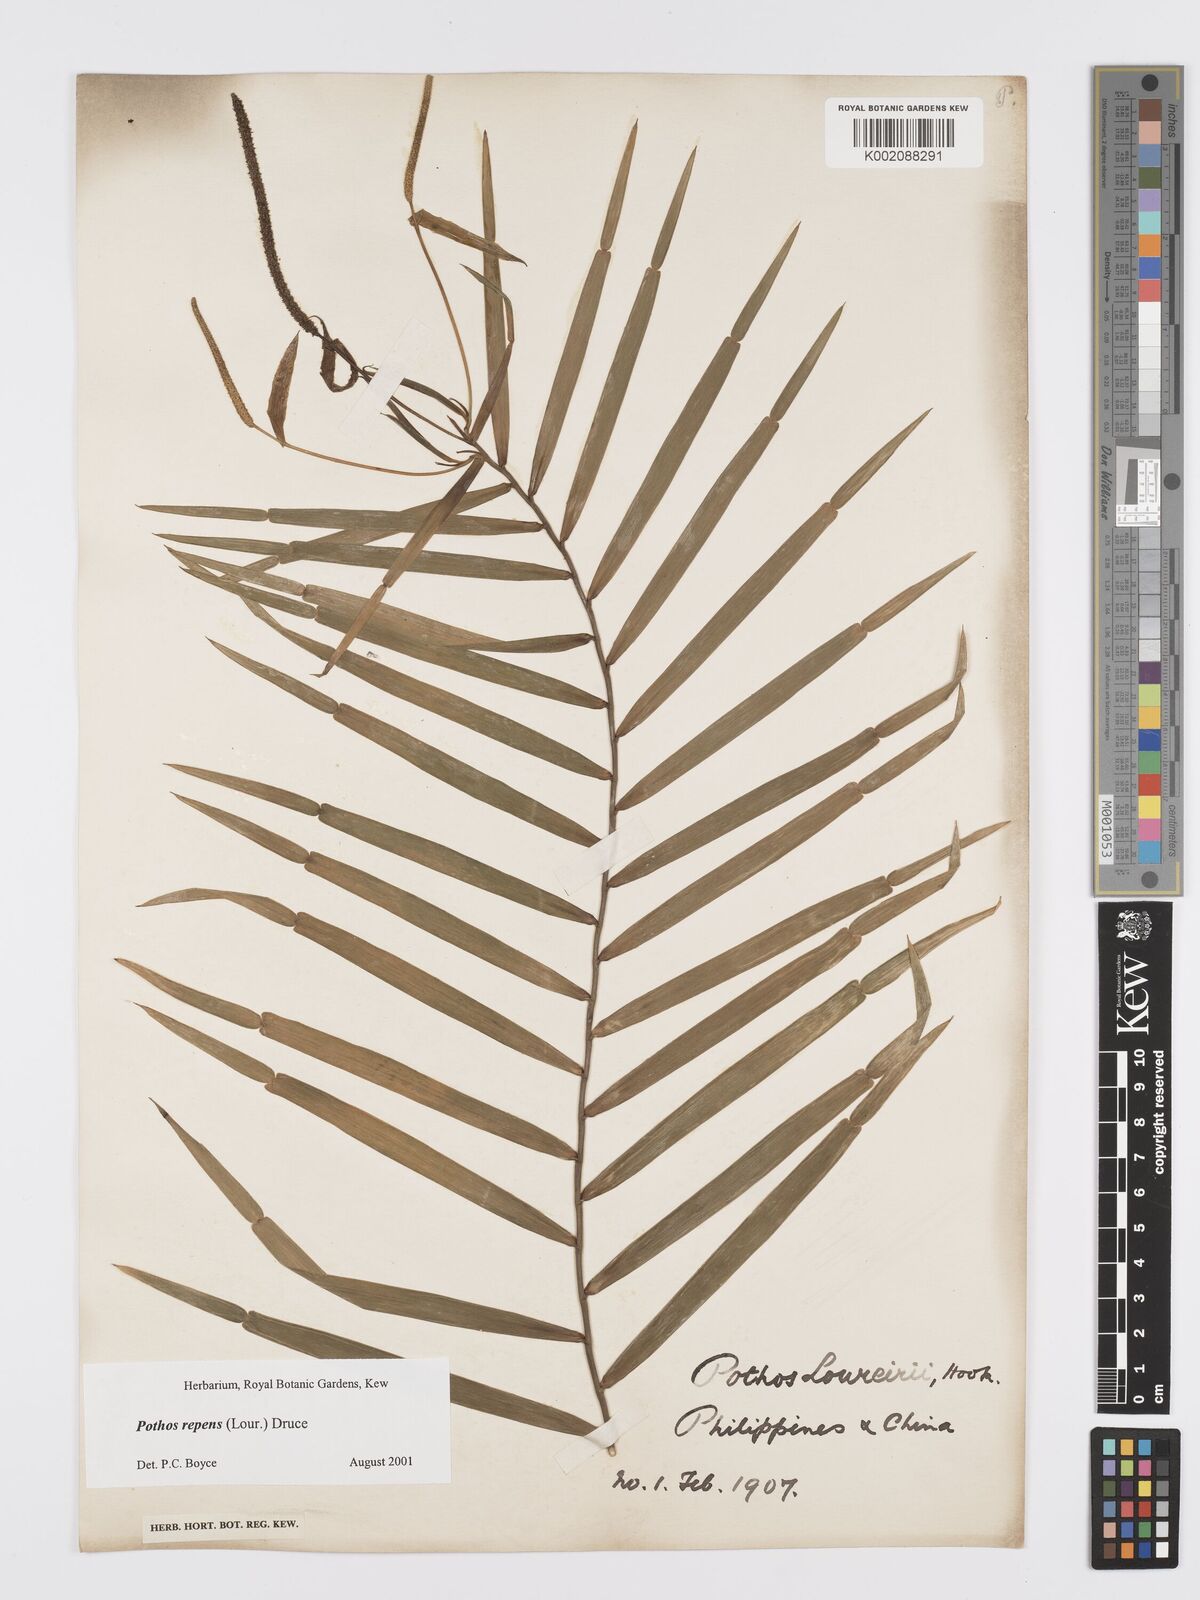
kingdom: Plantae
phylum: Tracheophyta
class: Liliopsida
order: Alismatales
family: Araceae
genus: Pothos
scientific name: Pothos repens
